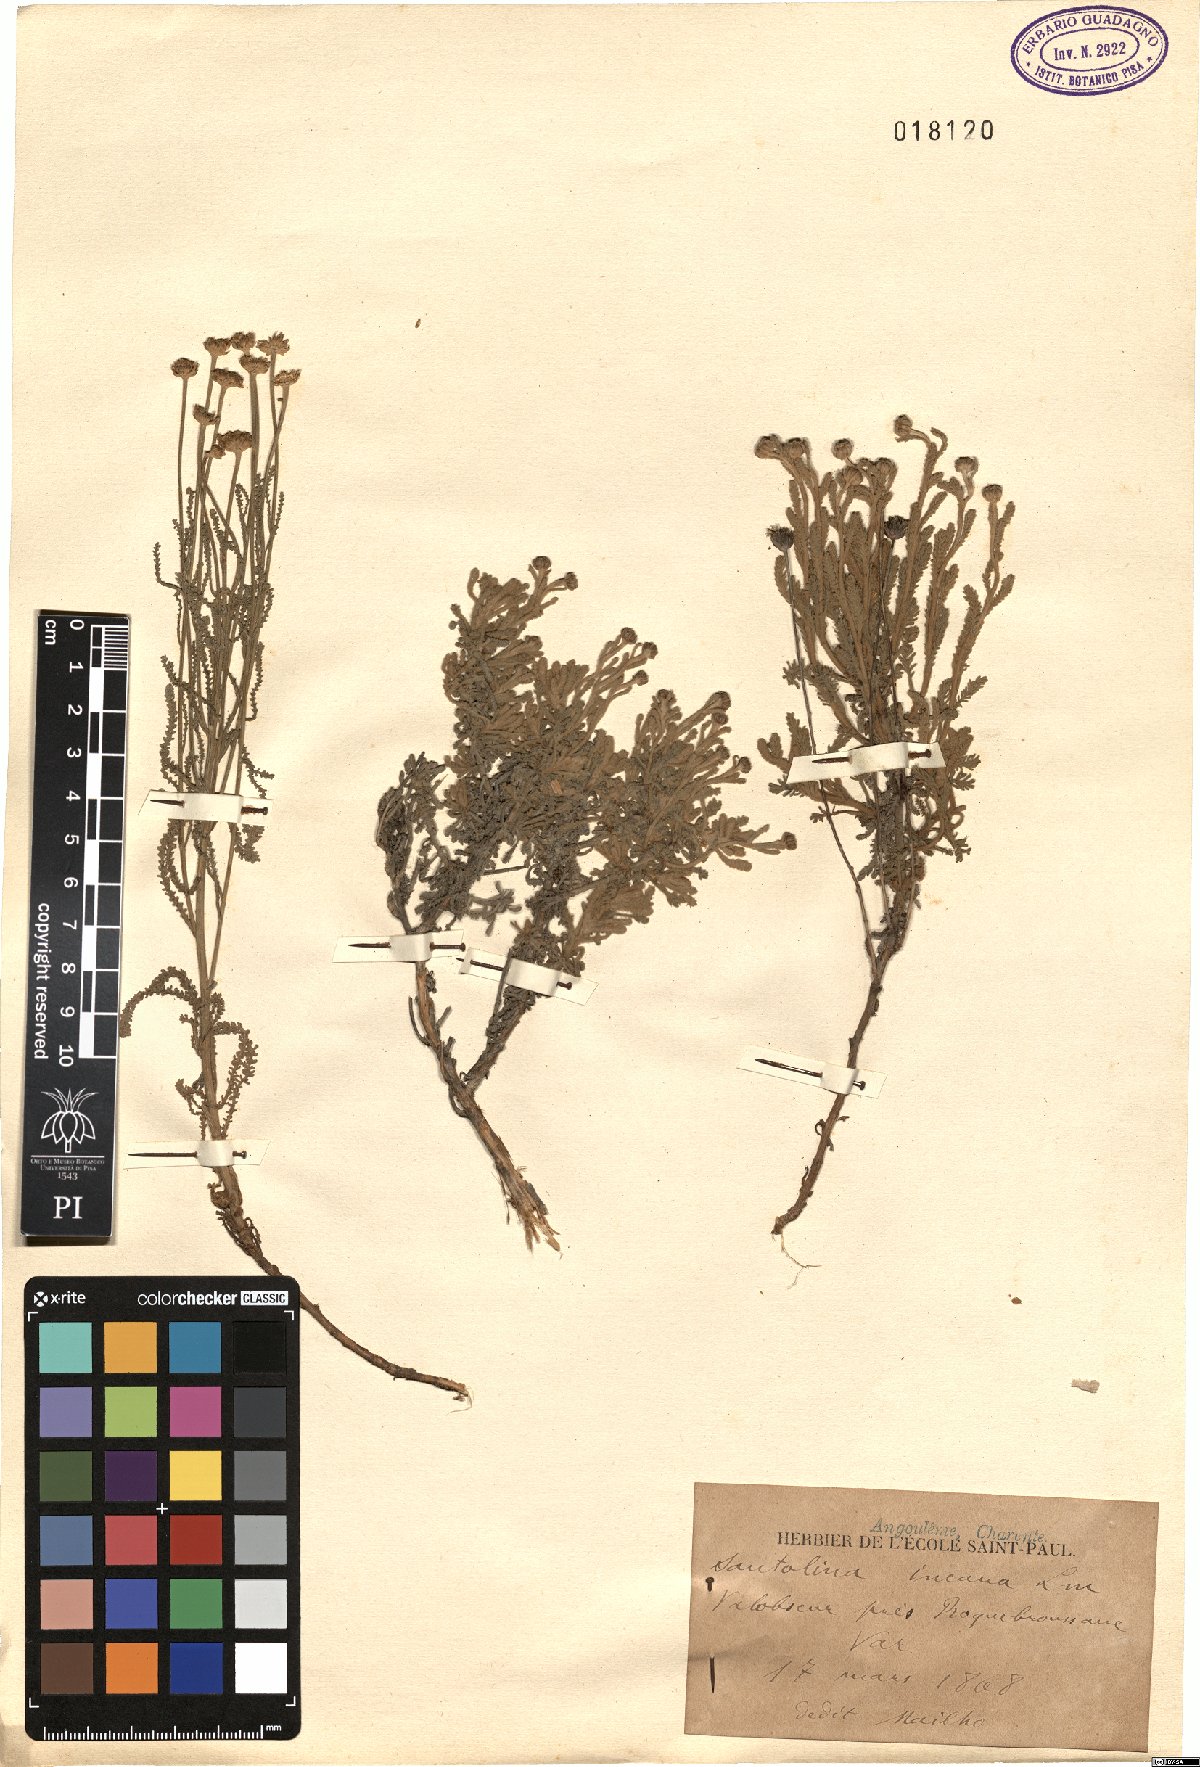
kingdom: Plantae
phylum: Tracheophyta
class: Magnoliopsida
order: Asterales
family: Asteraceae
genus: Santolina
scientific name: Santolina decumbens
